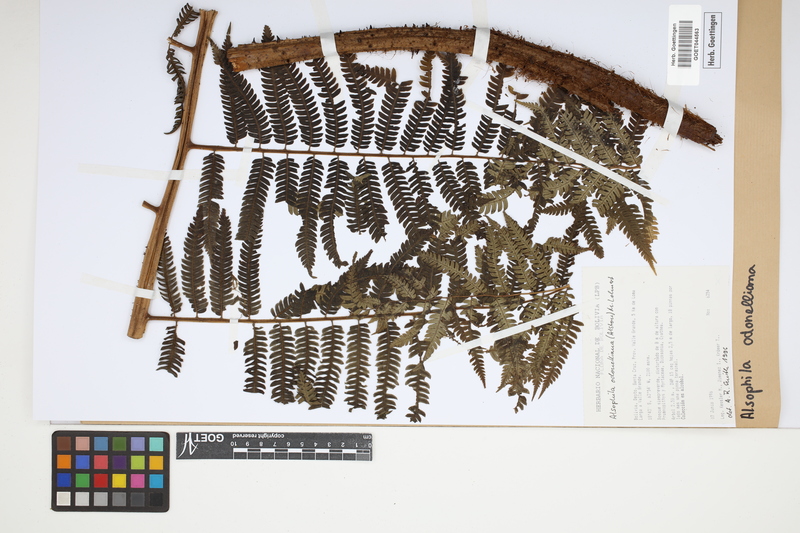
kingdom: Plantae
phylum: Tracheophyta
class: Polypodiopsida
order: Cyatheales
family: Cyatheaceae
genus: Alsophila
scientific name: Alsophila odonelliana
